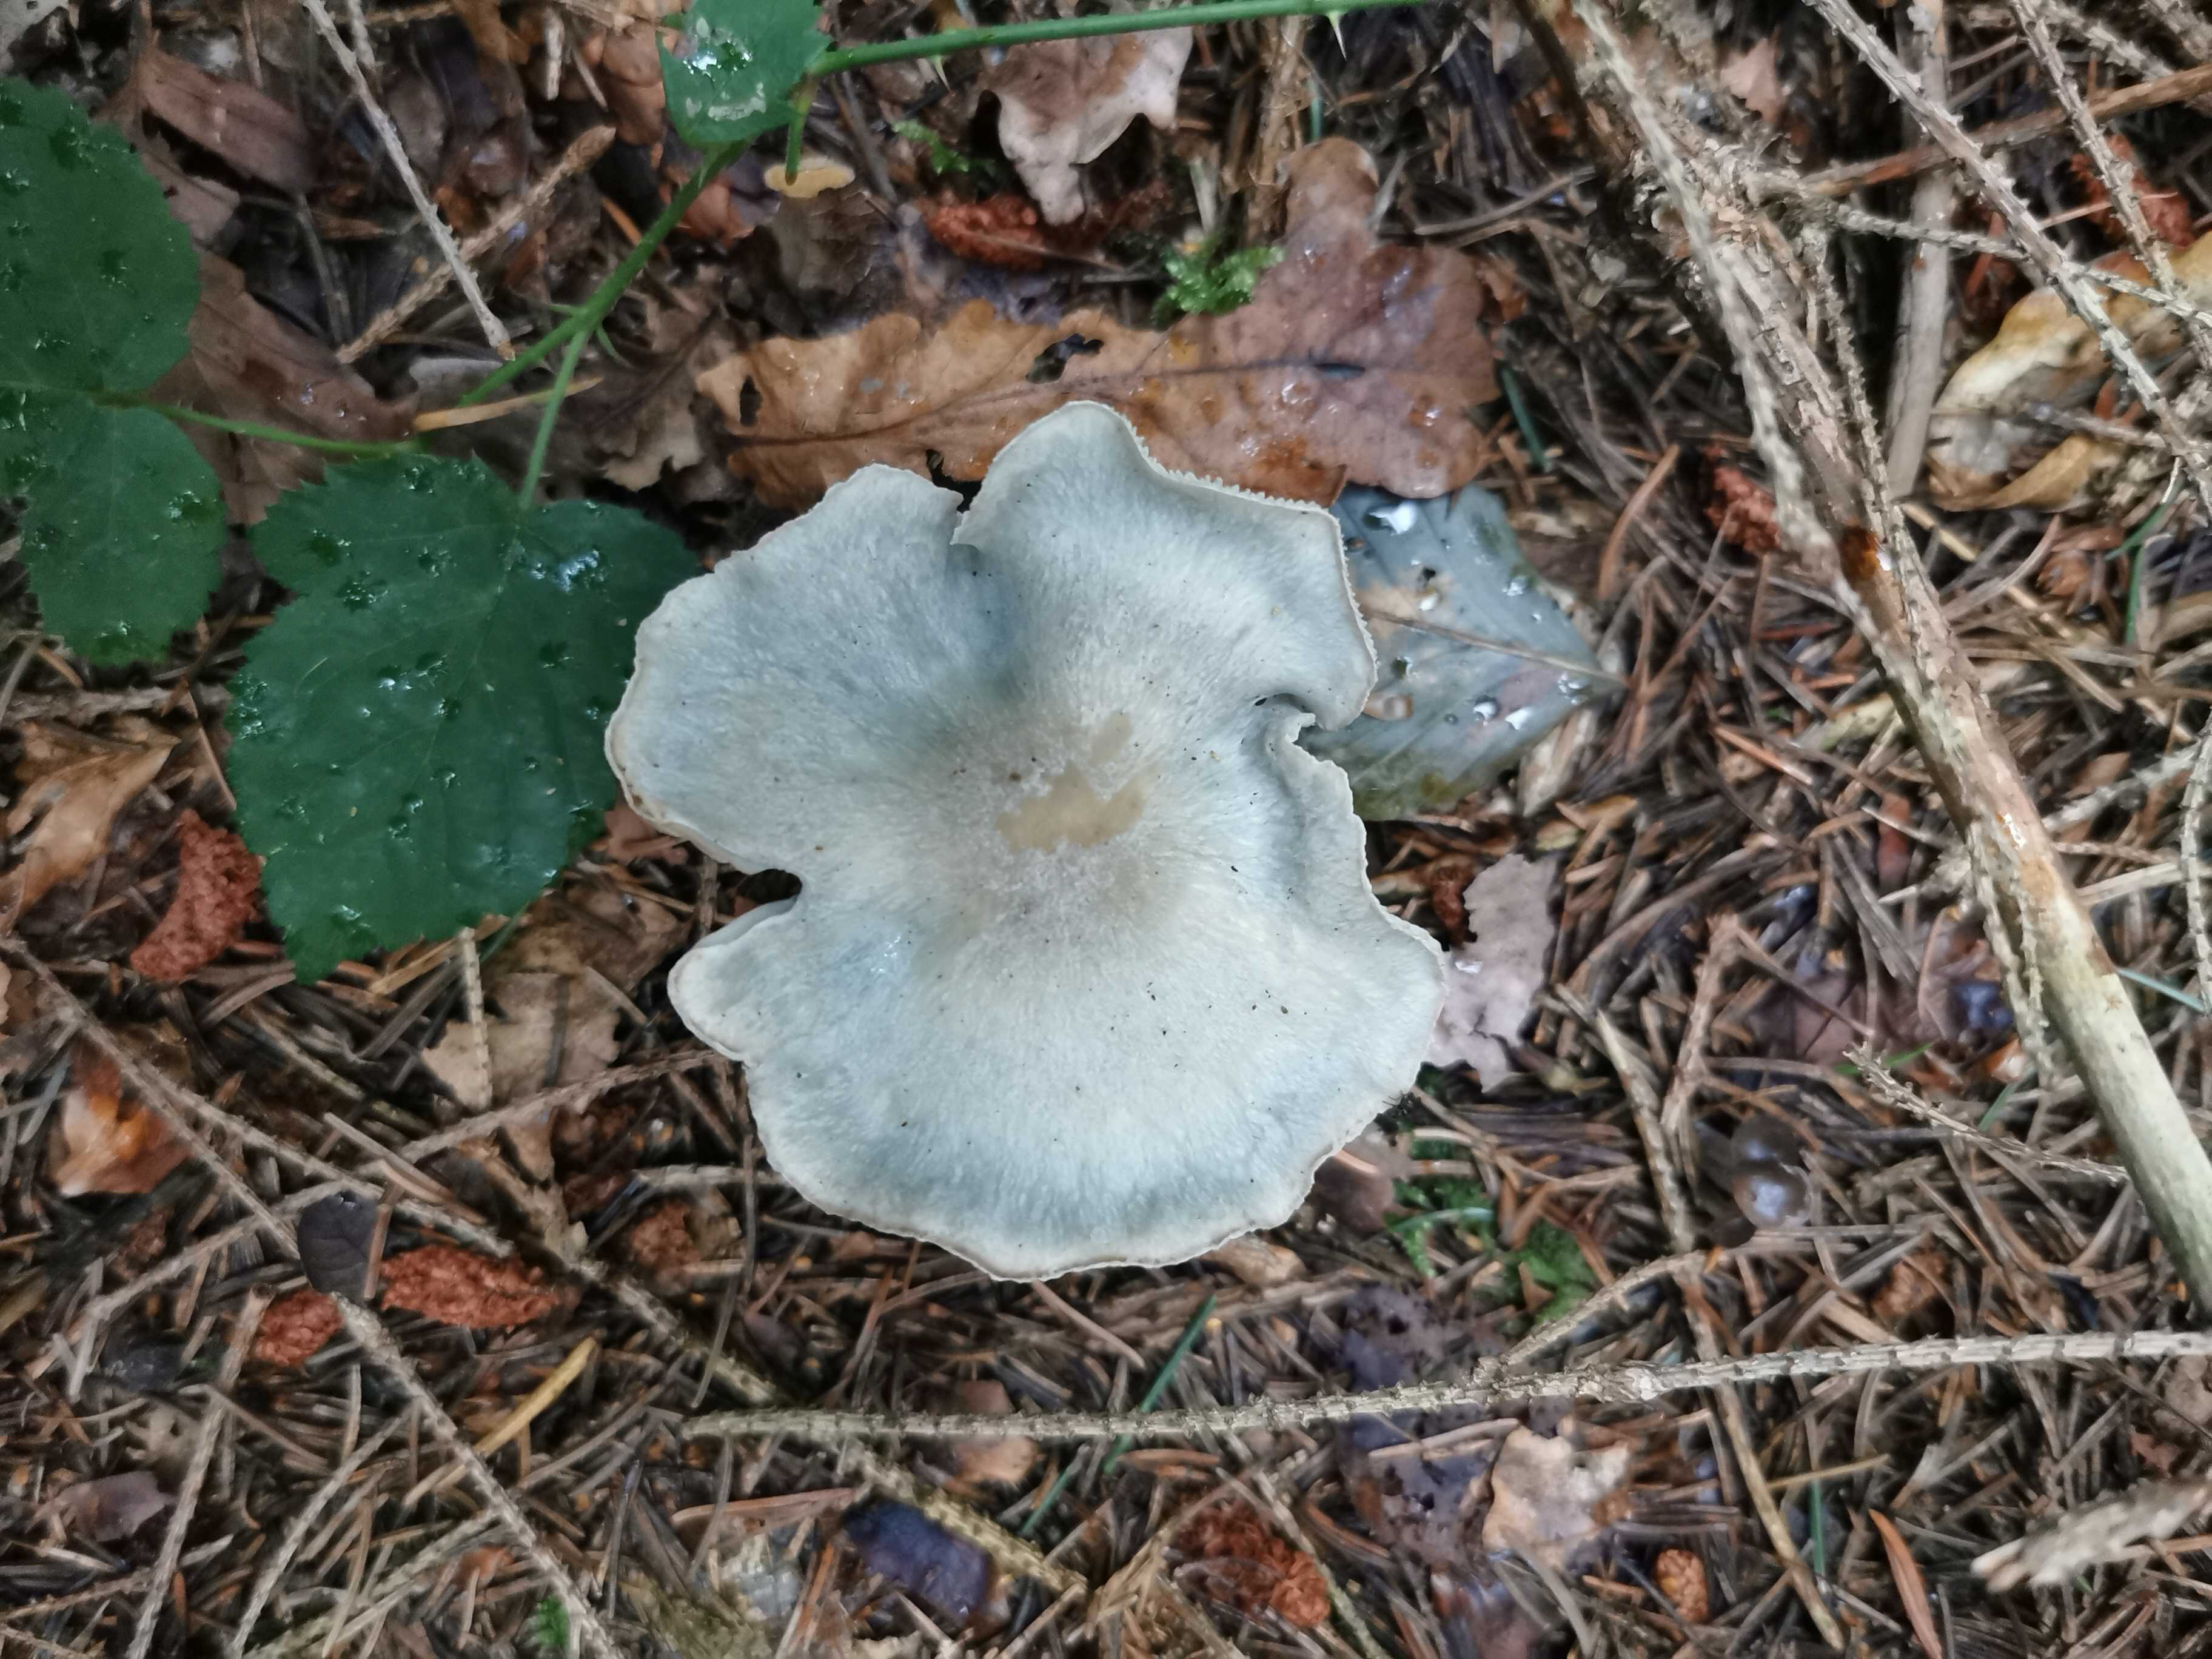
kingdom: Fungi
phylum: Basidiomycota
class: Agaricomycetes
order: Agaricales
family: Tricholomataceae
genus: Clitocybe
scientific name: Clitocybe odora
